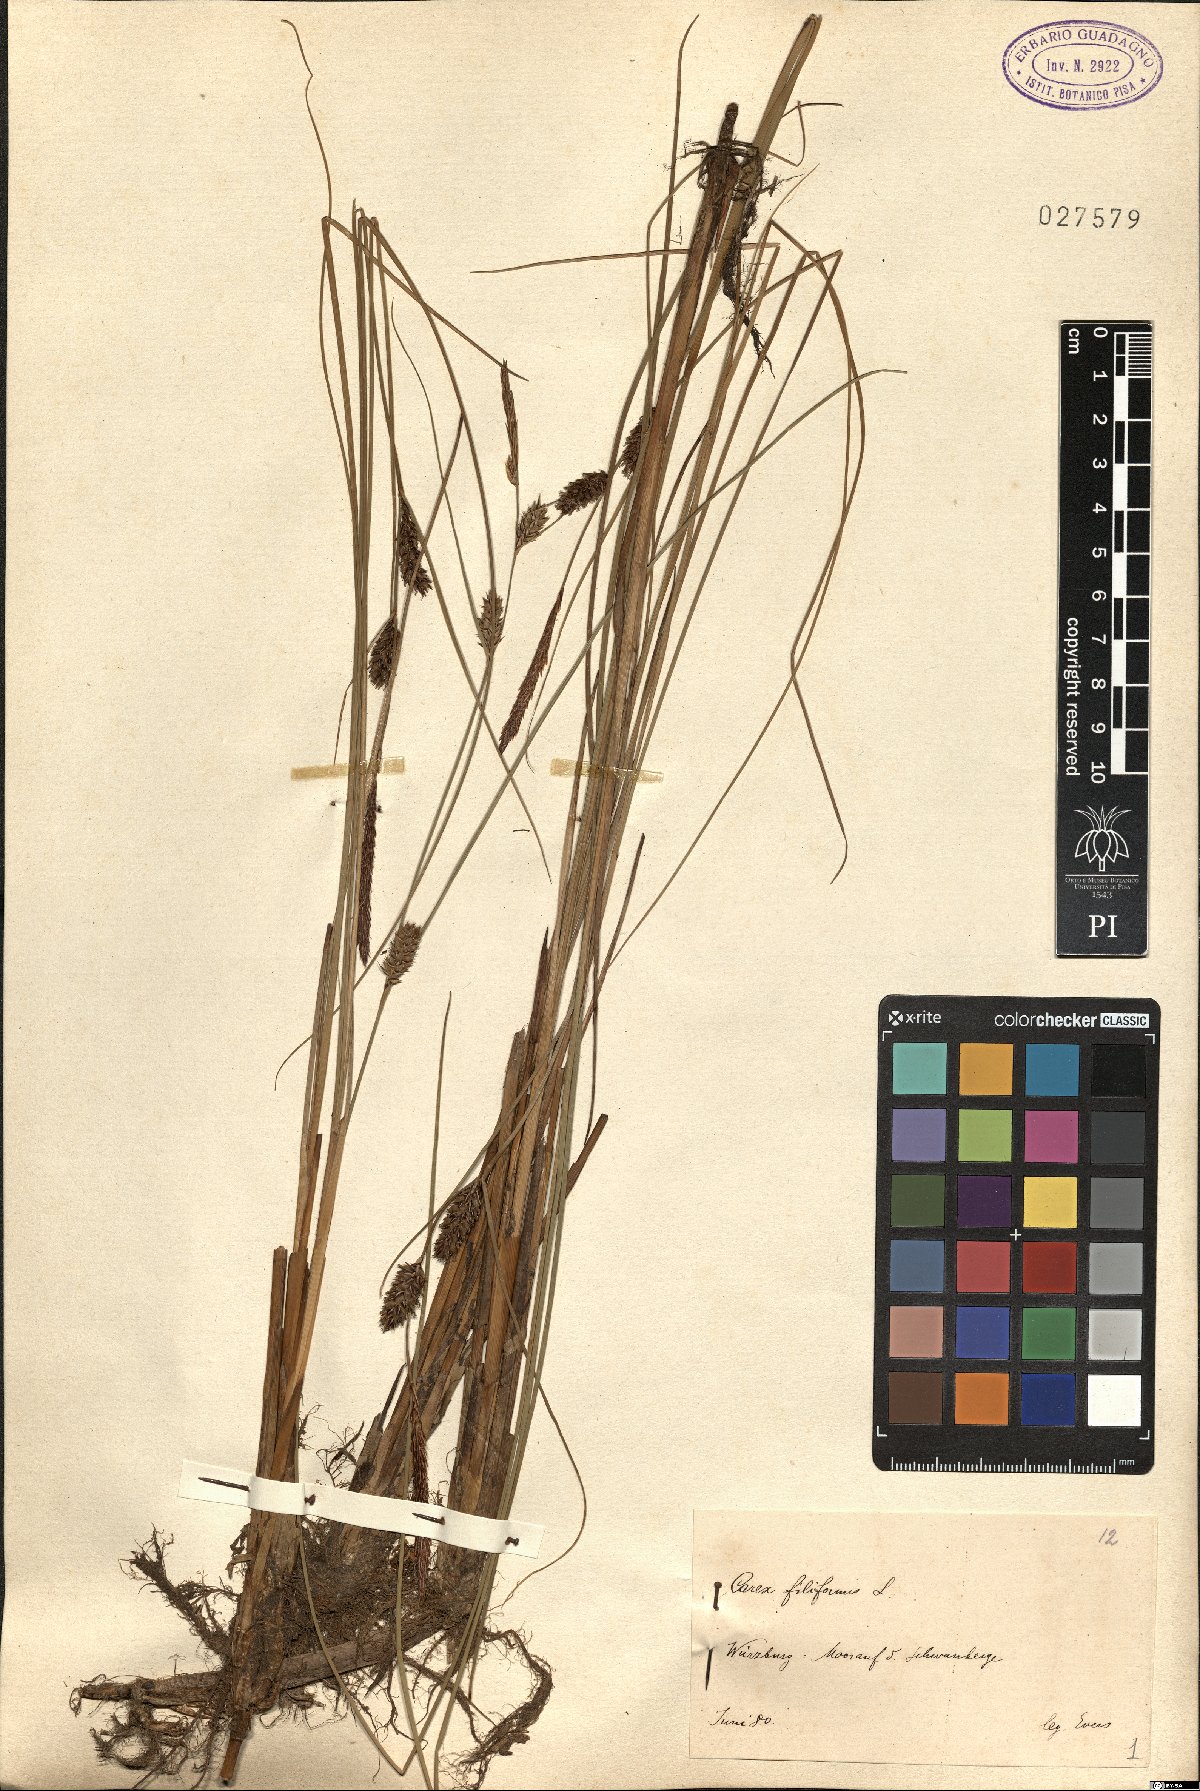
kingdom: Plantae
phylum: Tracheophyta
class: Liliopsida
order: Poales
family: Cyperaceae
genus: Carex
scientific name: Carex montana
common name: Soft-leaved sedge
